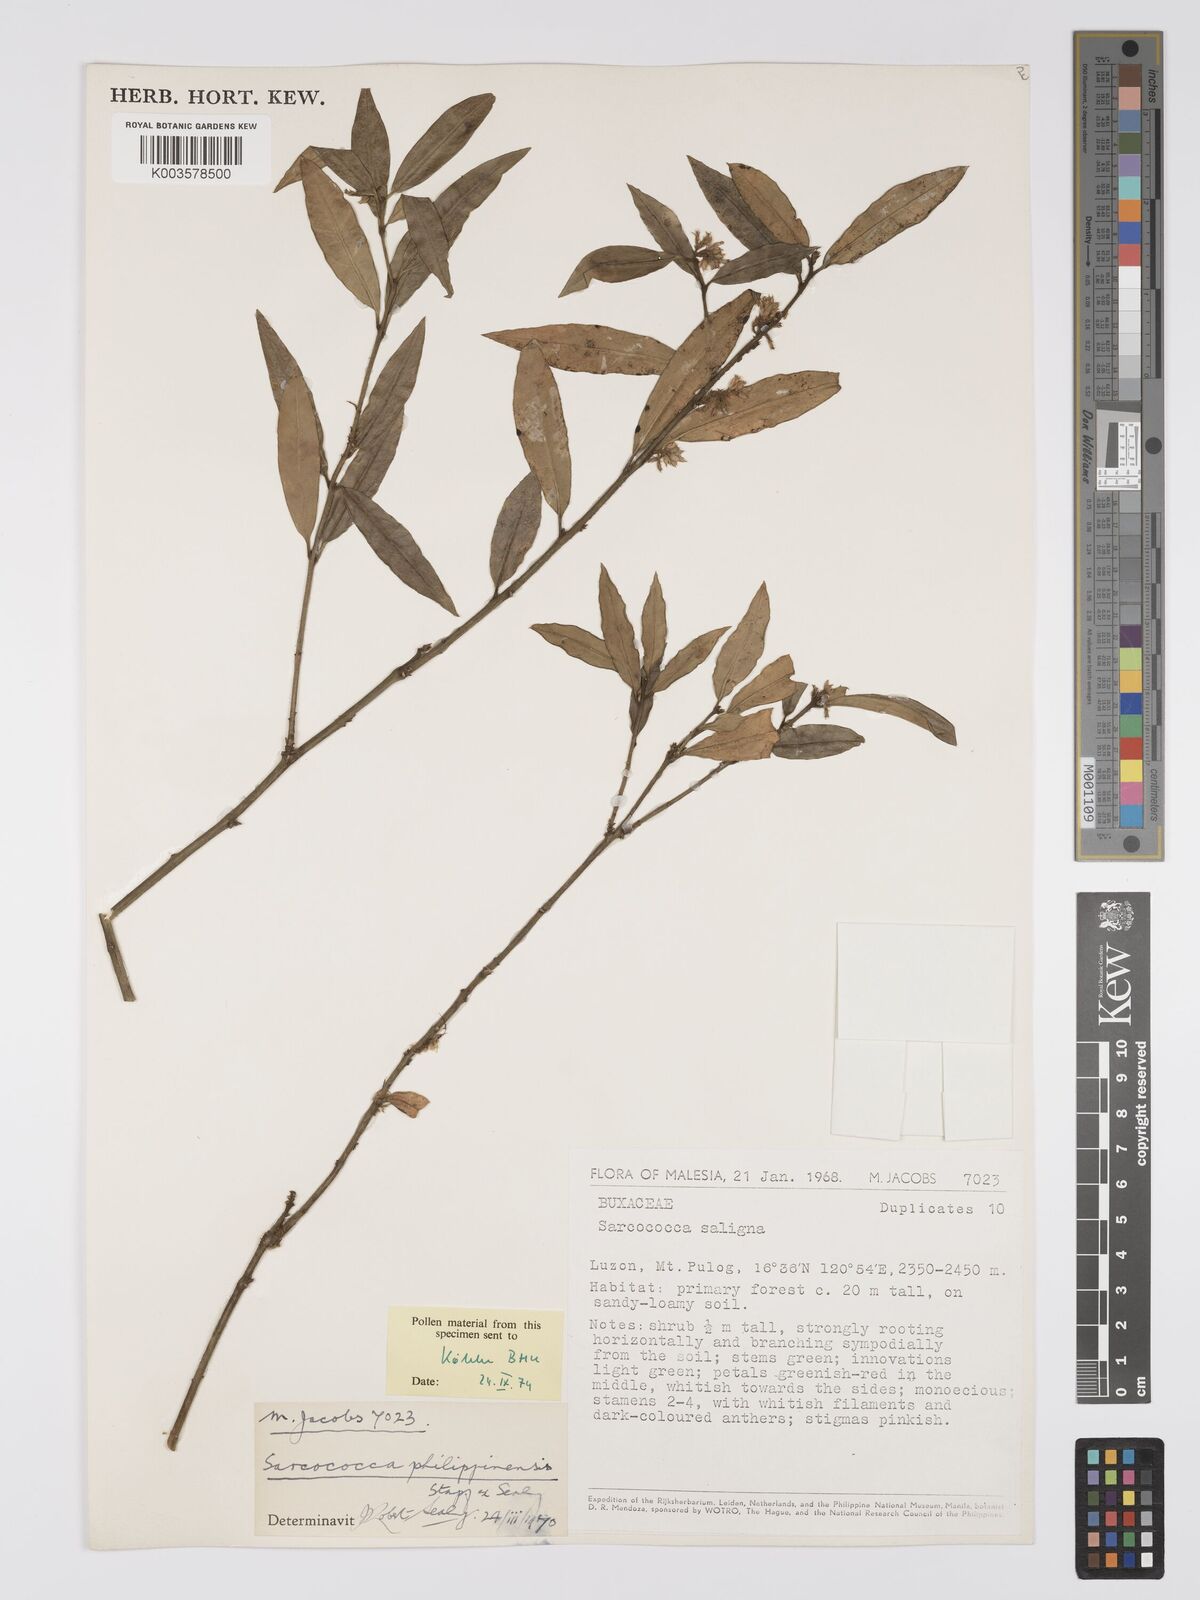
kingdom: Plantae
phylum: Tracheophyta
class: Magnoliopsida
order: Buxales
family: Buxaceae
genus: Sarcococca
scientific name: Sarcococca saligna
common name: Willow-leaf sweet-box
